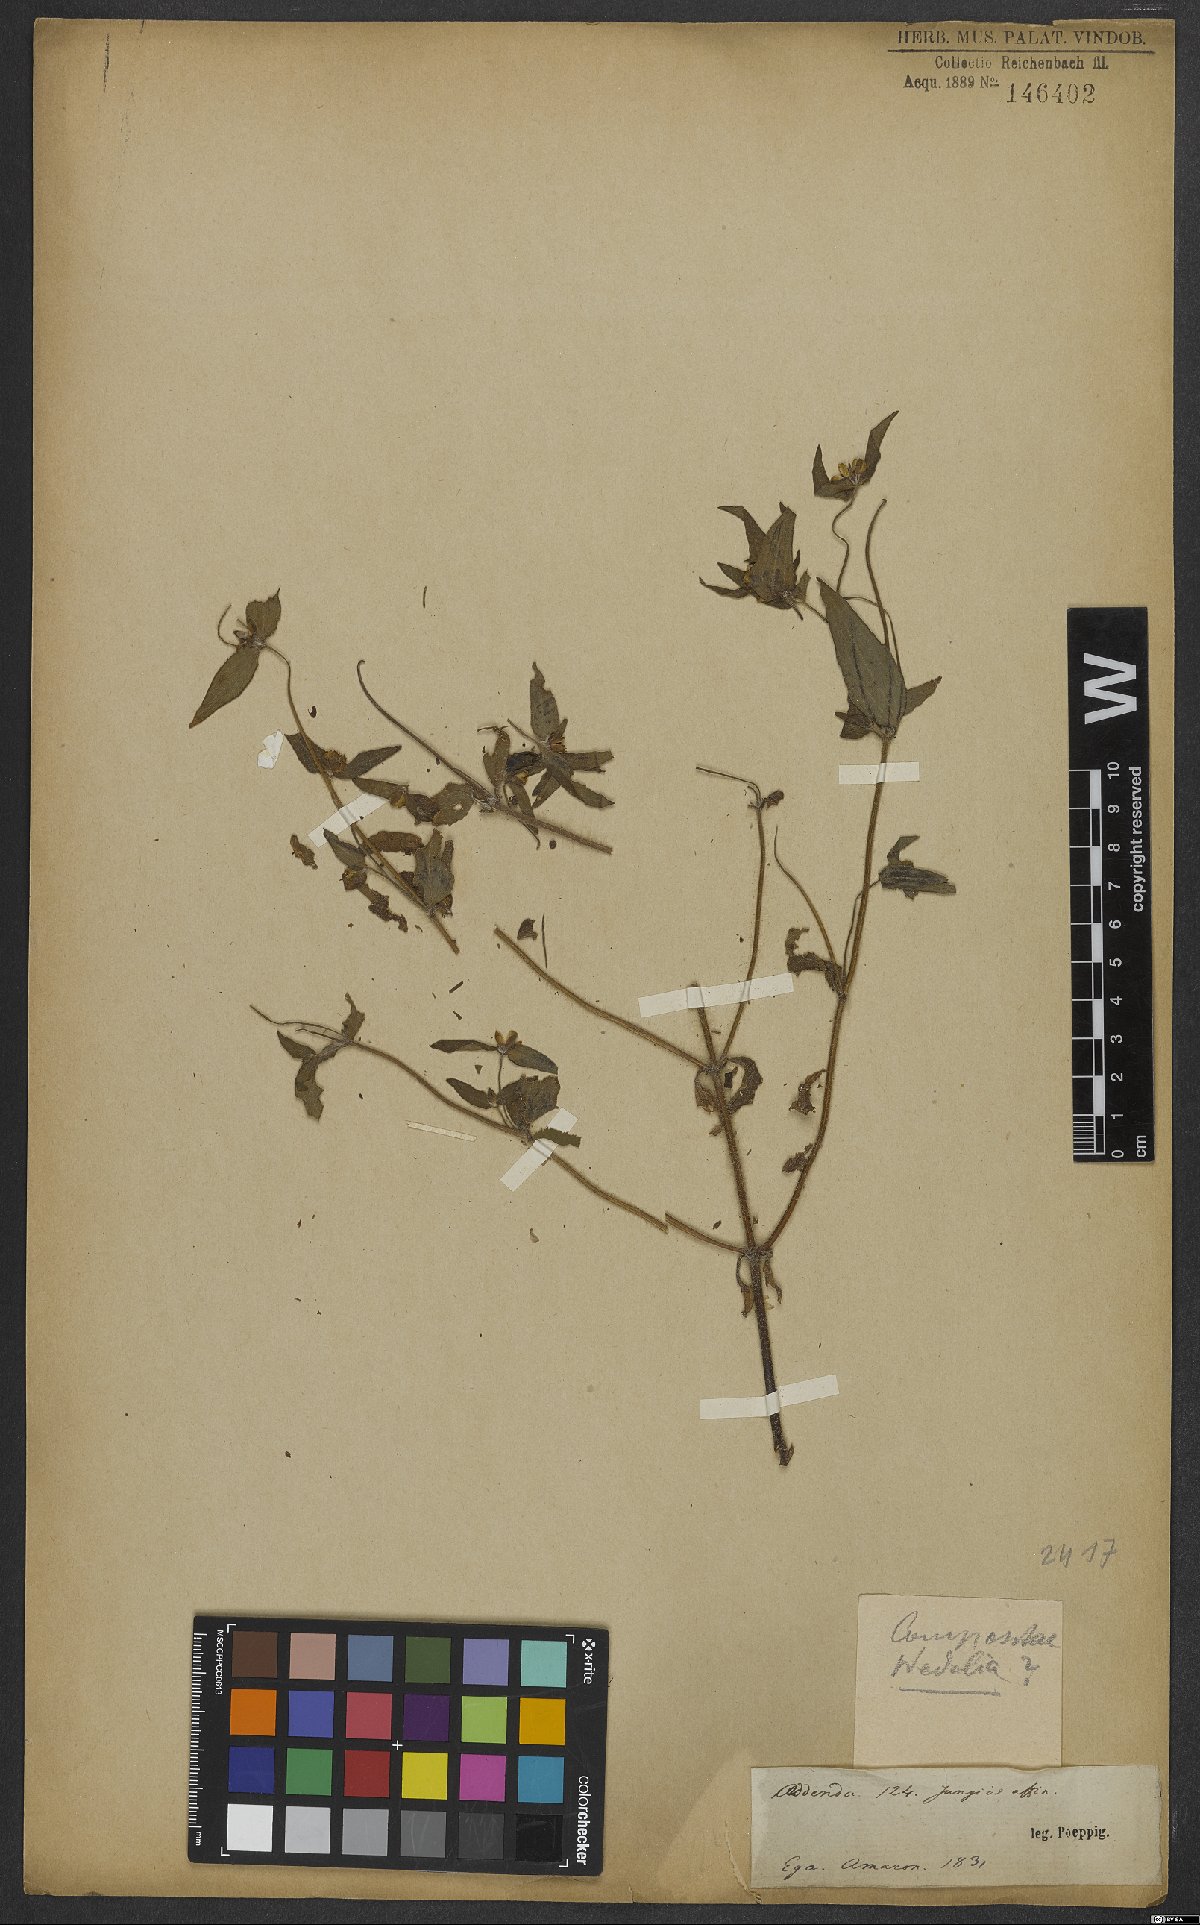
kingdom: Plantae
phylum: Tracheophyta
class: Magnoliopsida
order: Asterales
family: Asteraceae
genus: Wedelia
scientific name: Wedelia
